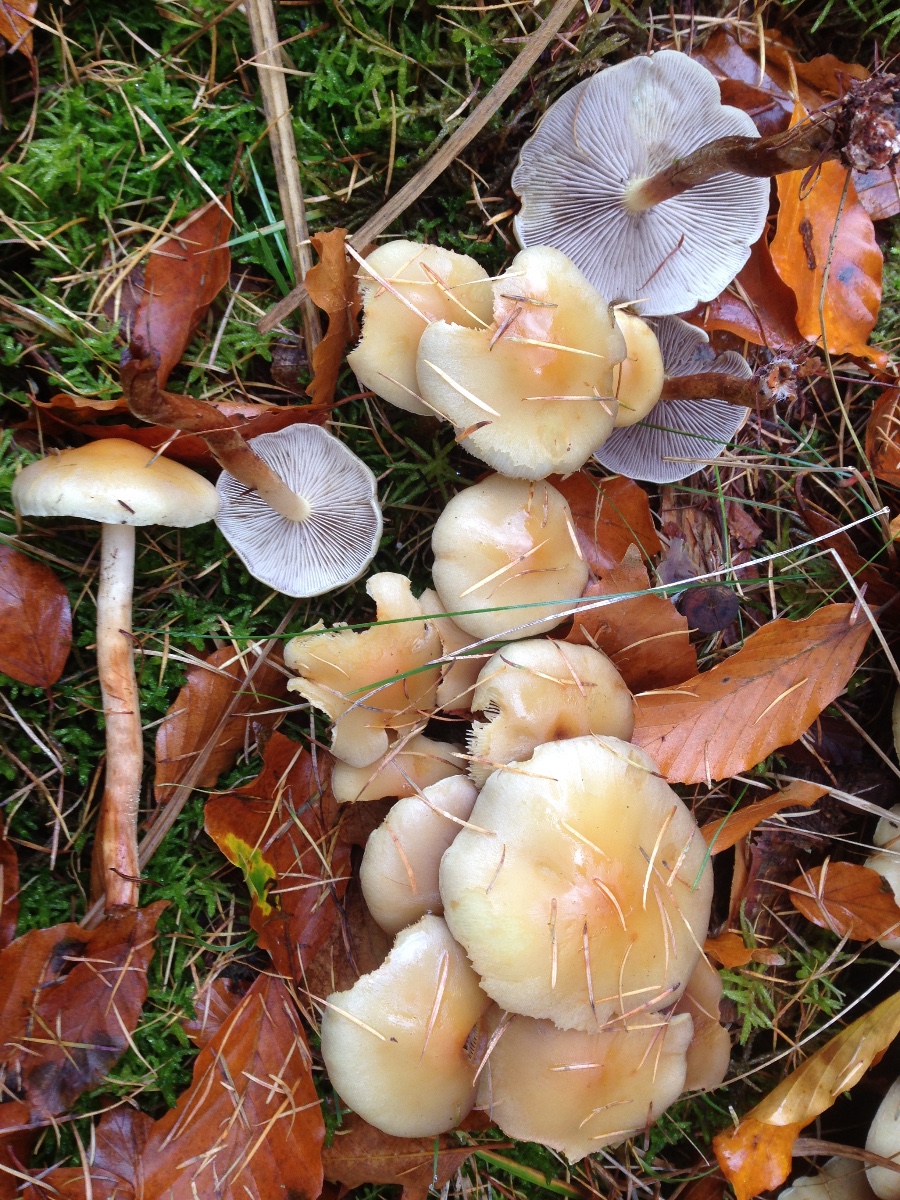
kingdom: Fungi
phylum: Basidiomycota
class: Agaricomycetes
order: Agaricales
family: Strophariaceae
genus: Hypholoma
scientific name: Hypholoma capnoides
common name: gran-svovlhat
